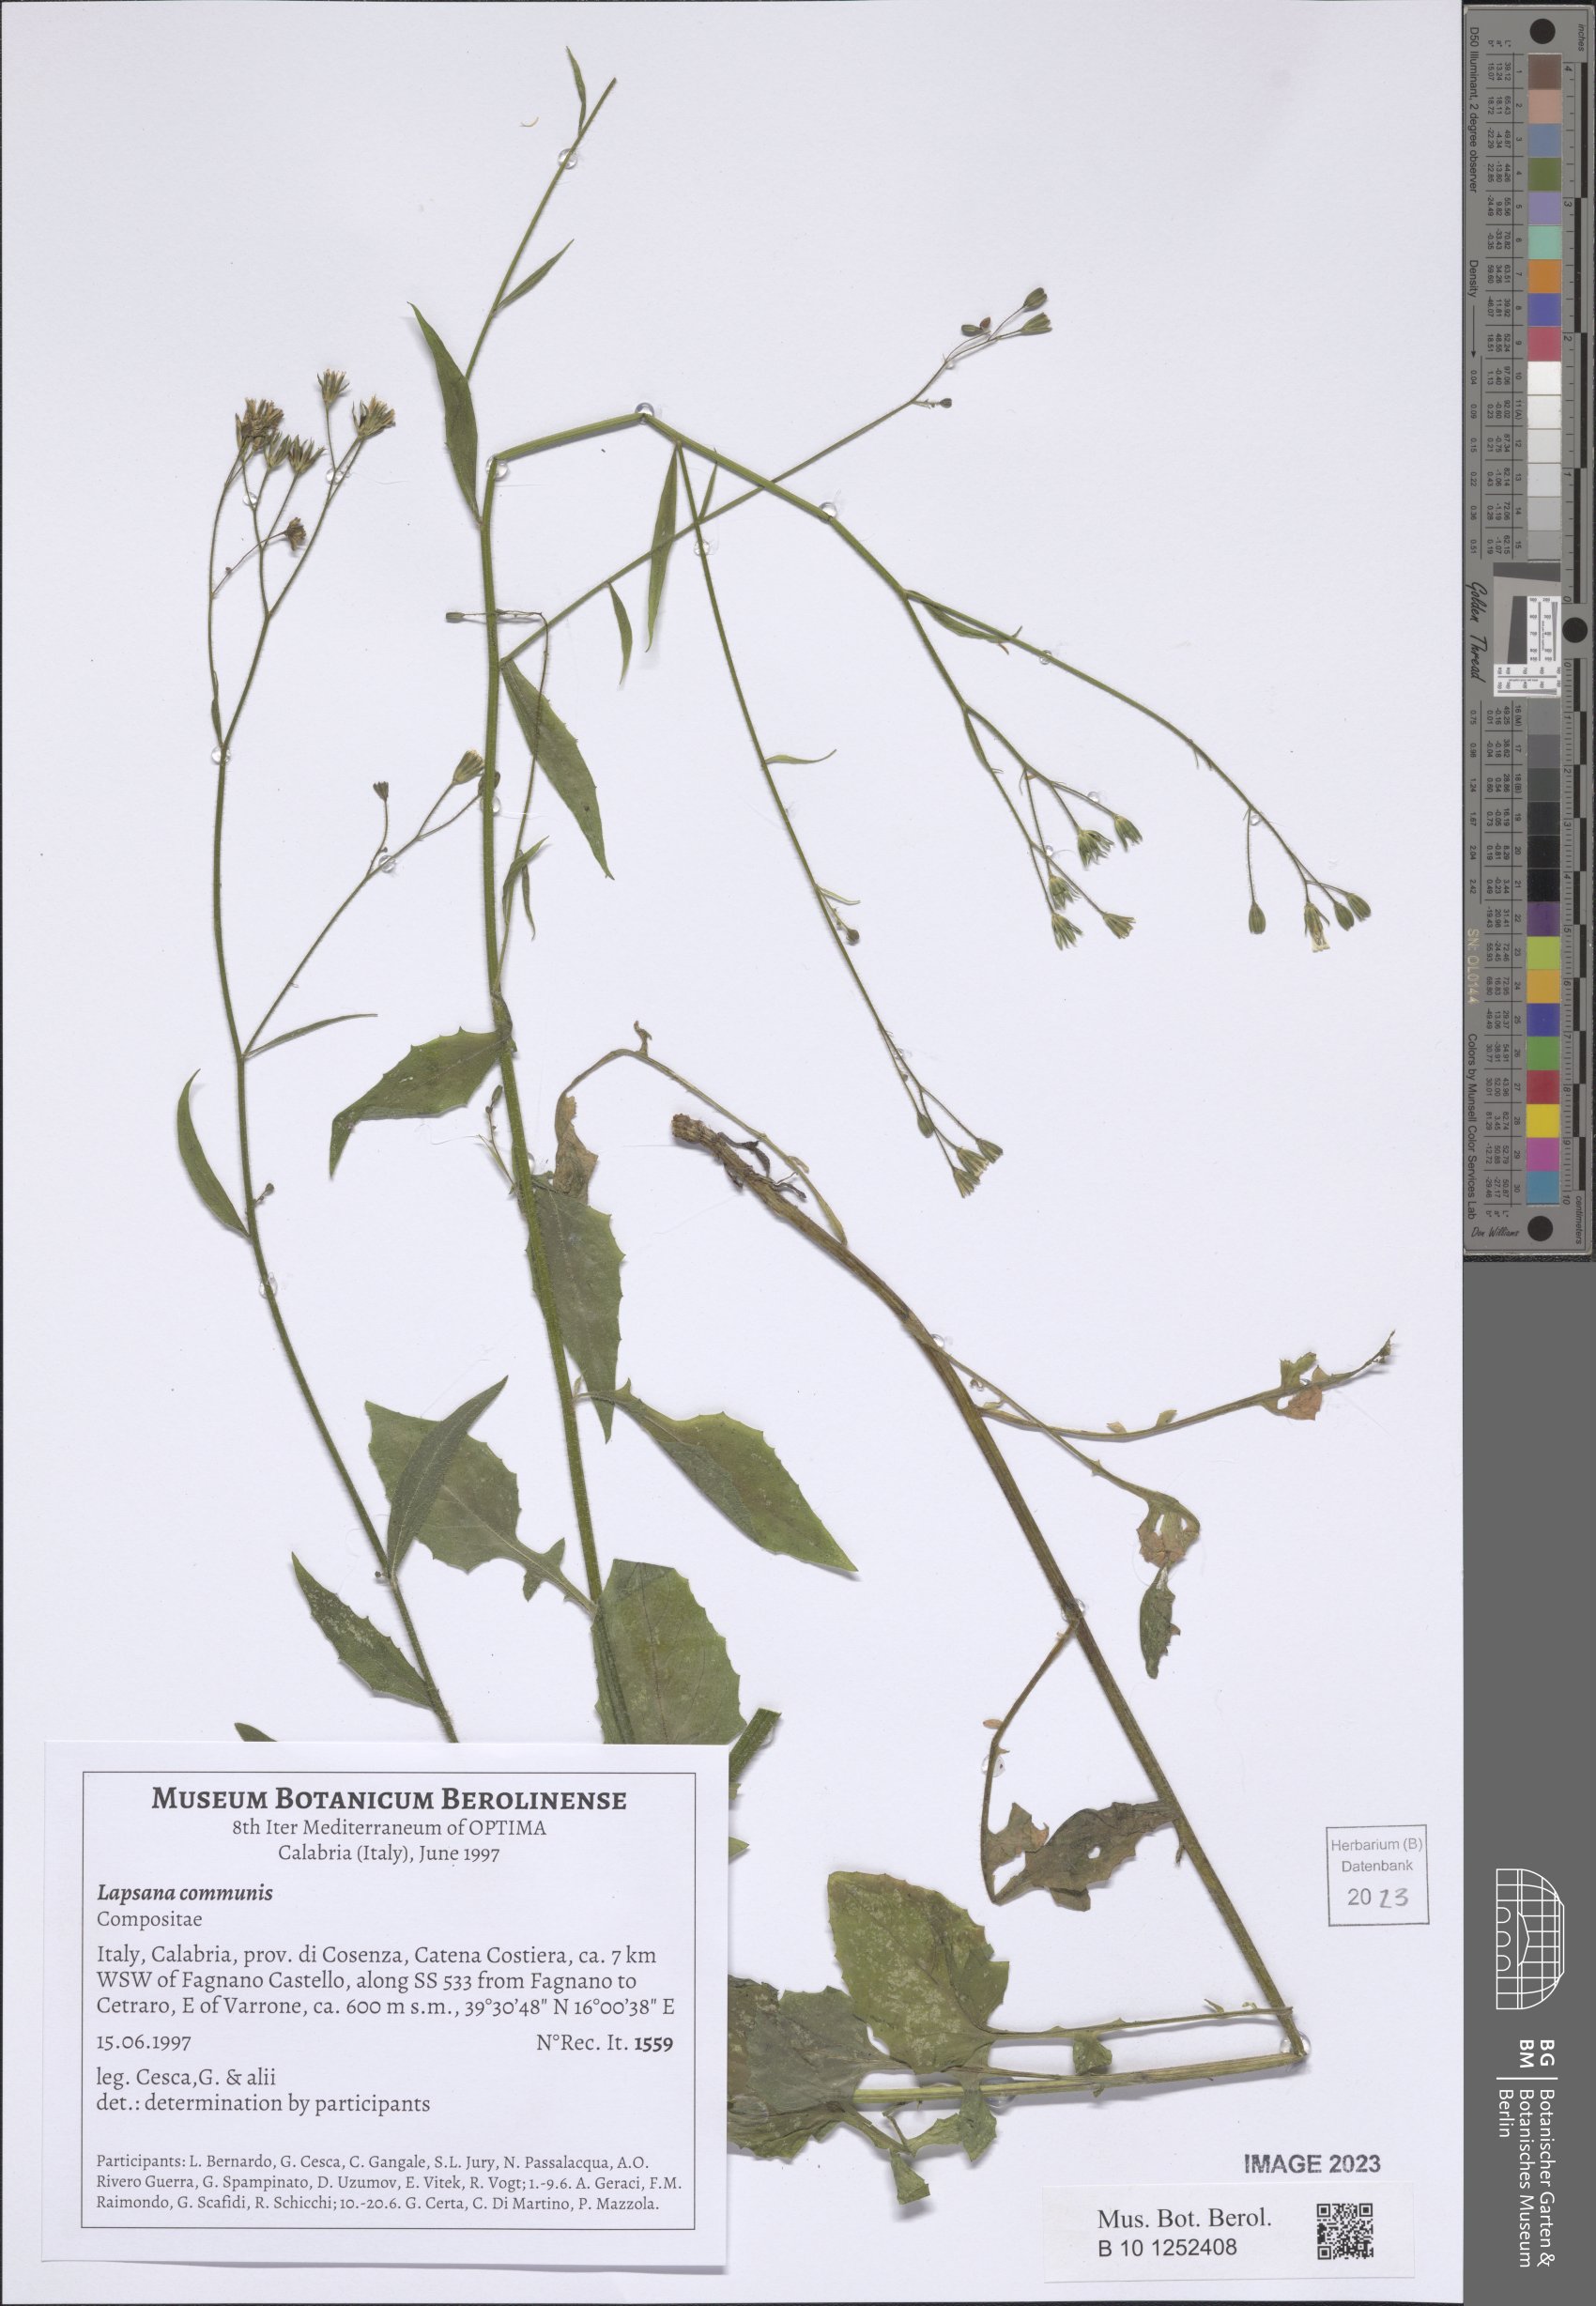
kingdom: Plantae
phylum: Tracheophyta
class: Magnoliopsida
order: Asterales
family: Asteraceae
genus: Lapsana
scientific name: Lapsana communis
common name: Nipplewort
